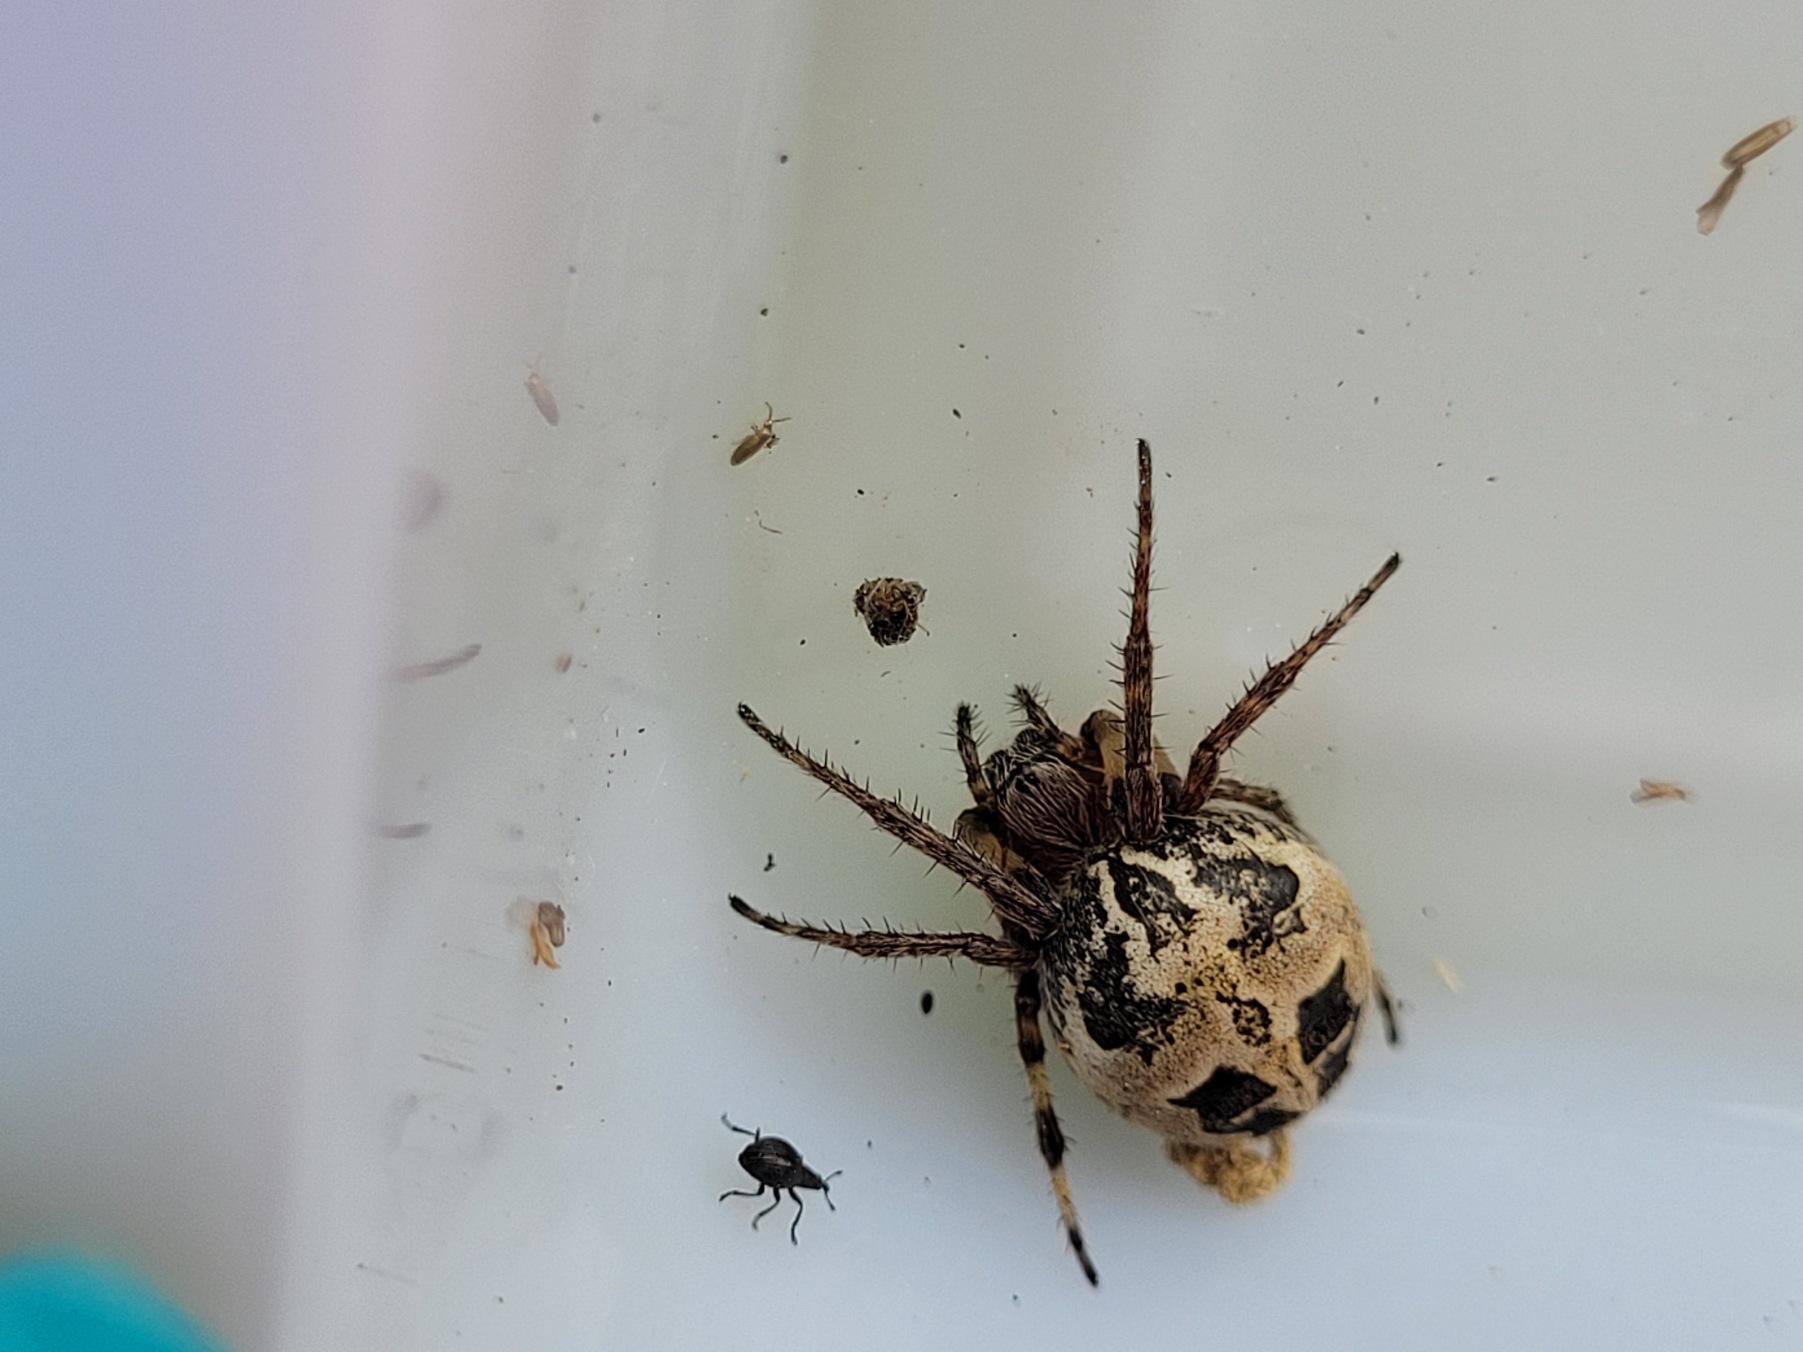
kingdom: Animalia
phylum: Arthropoda
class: Arachnida
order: Araneae
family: Araneidae
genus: Larinioides
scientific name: Larinioides cornutus
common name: Sivhjulspinder
